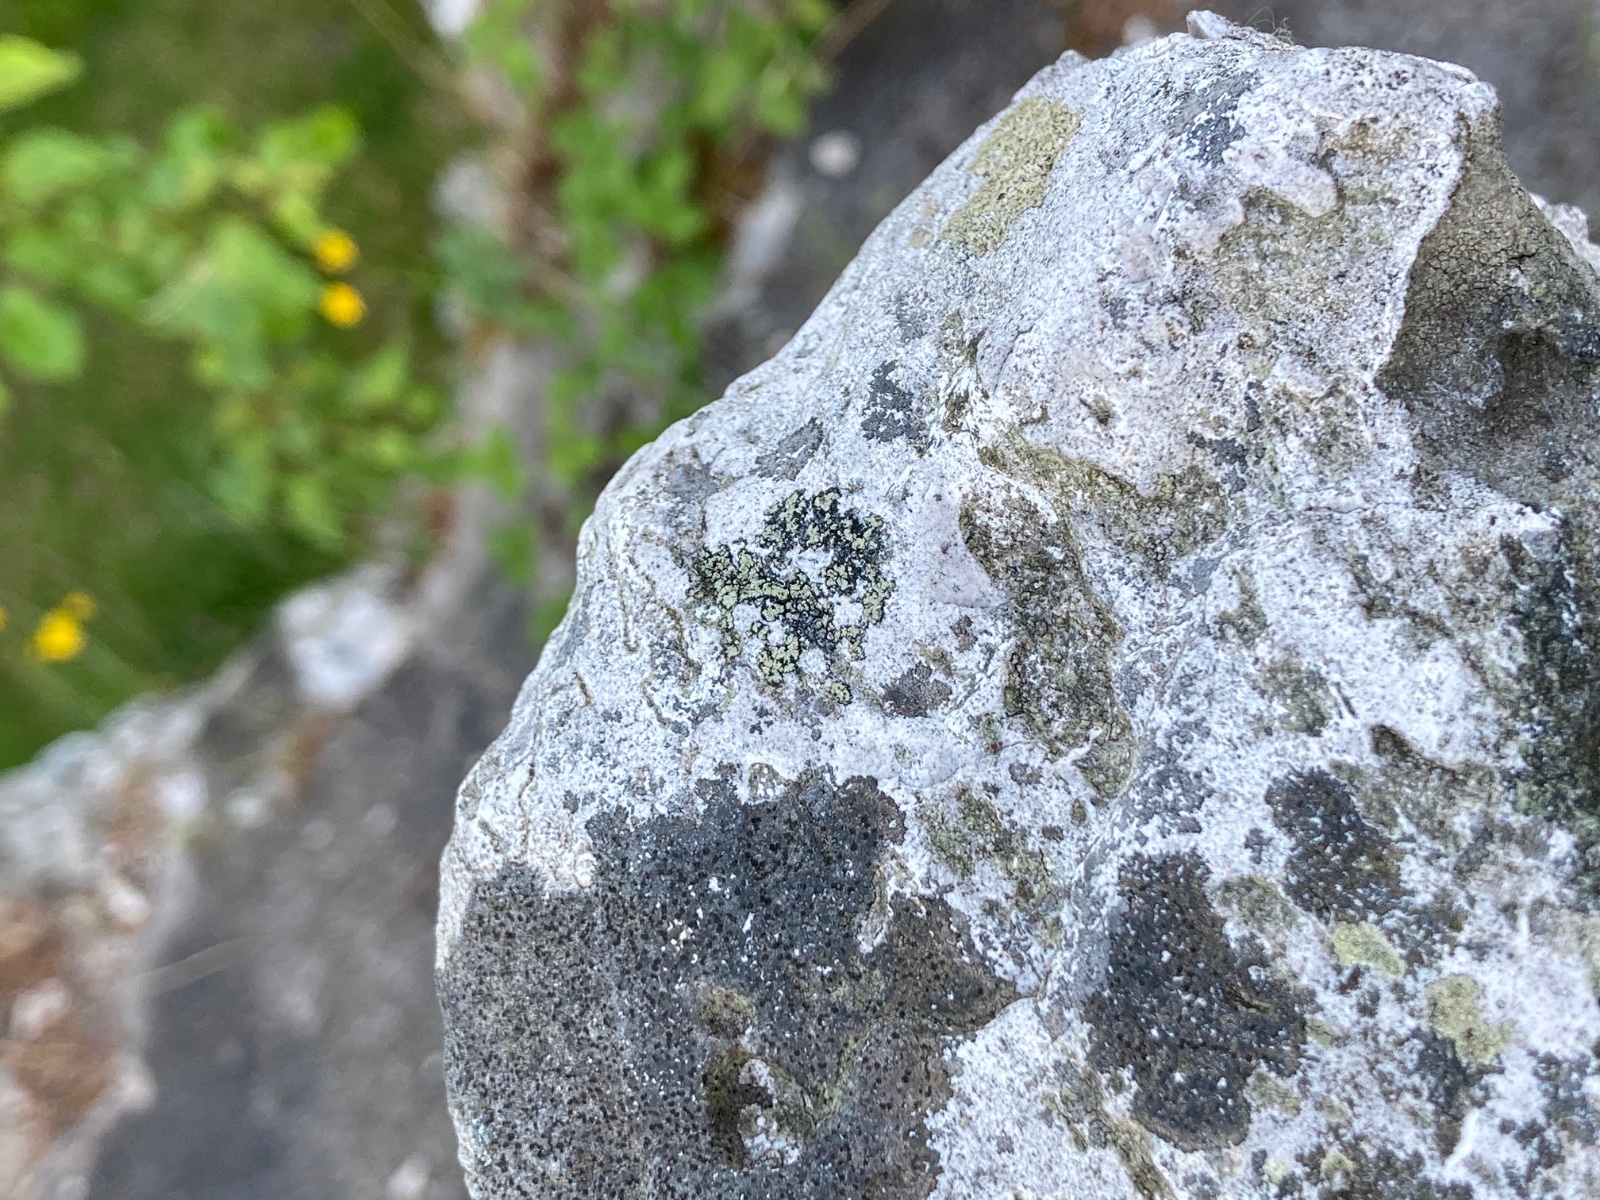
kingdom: Fungi
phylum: Ascomycota
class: Lecanoromycetes
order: Rhizocarpales
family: Rhizocarpaceae
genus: Rhizocarpon
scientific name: Rhizocarpon geographicum
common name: gulgrøn landkortlav
